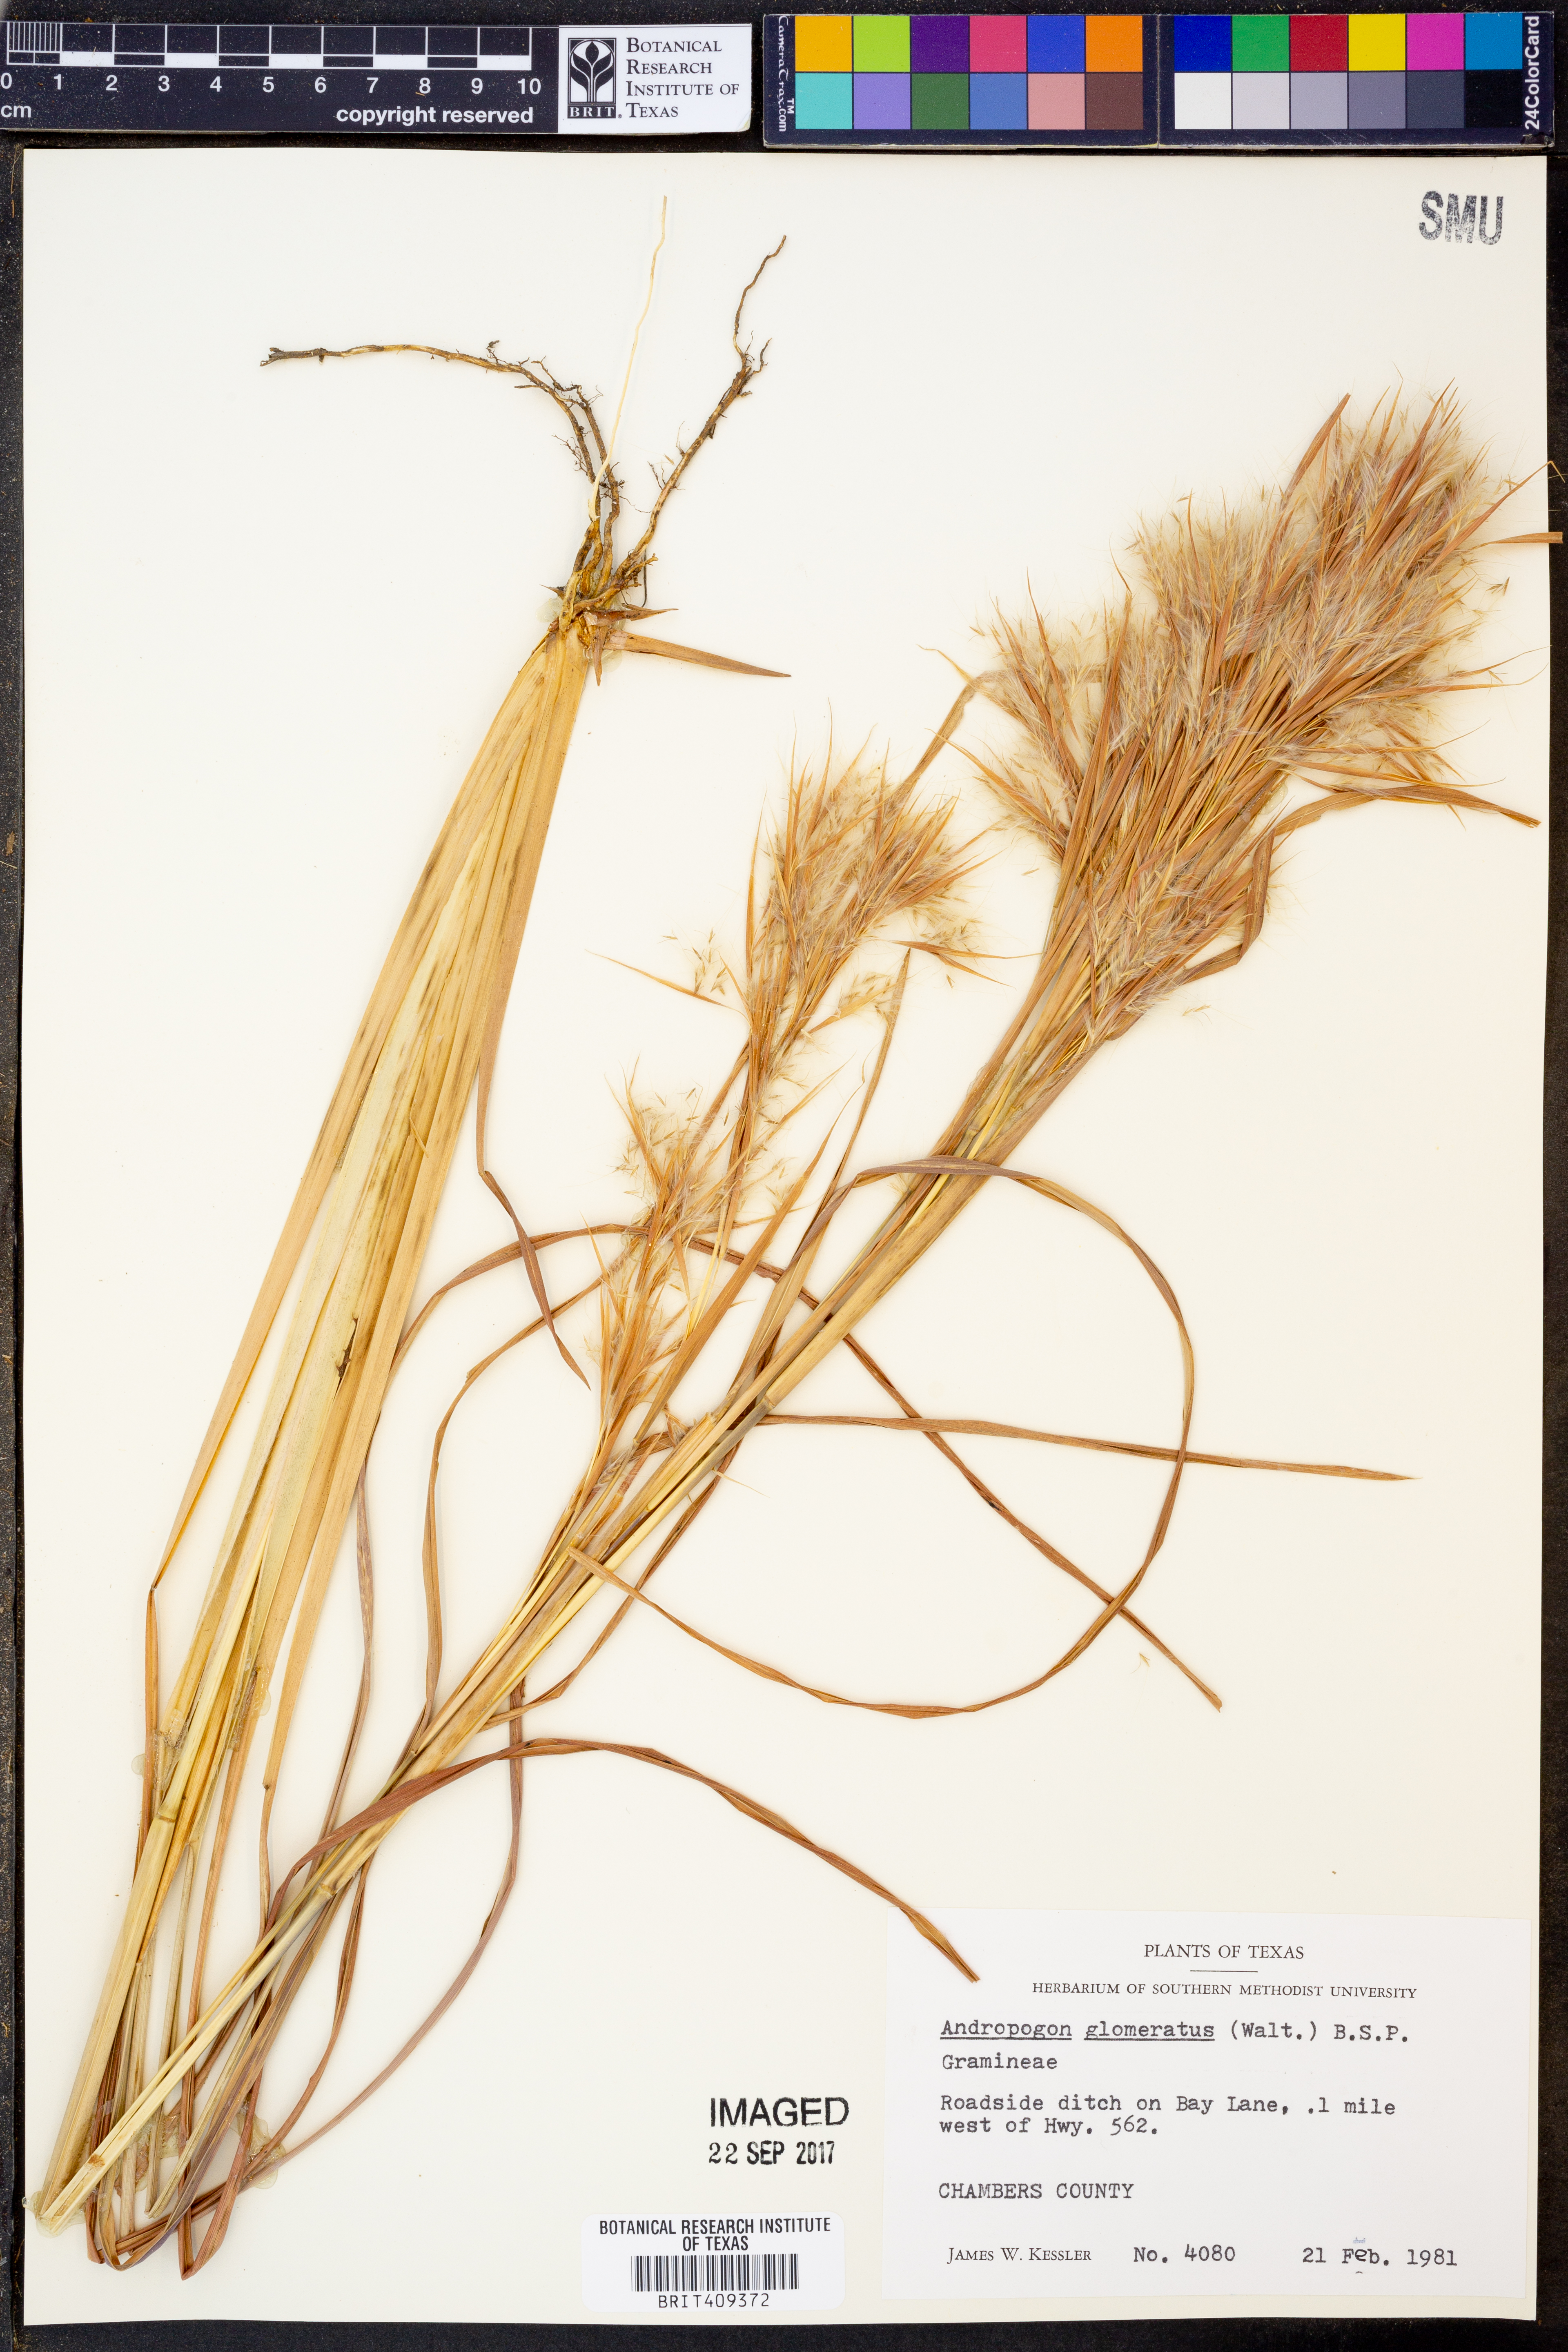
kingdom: Plantae
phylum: Tracheophyta
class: Liliopsida
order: Poales
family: Poaceae
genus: Andropogon
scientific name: Andropogon glomeratus
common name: Bushy beard grass
